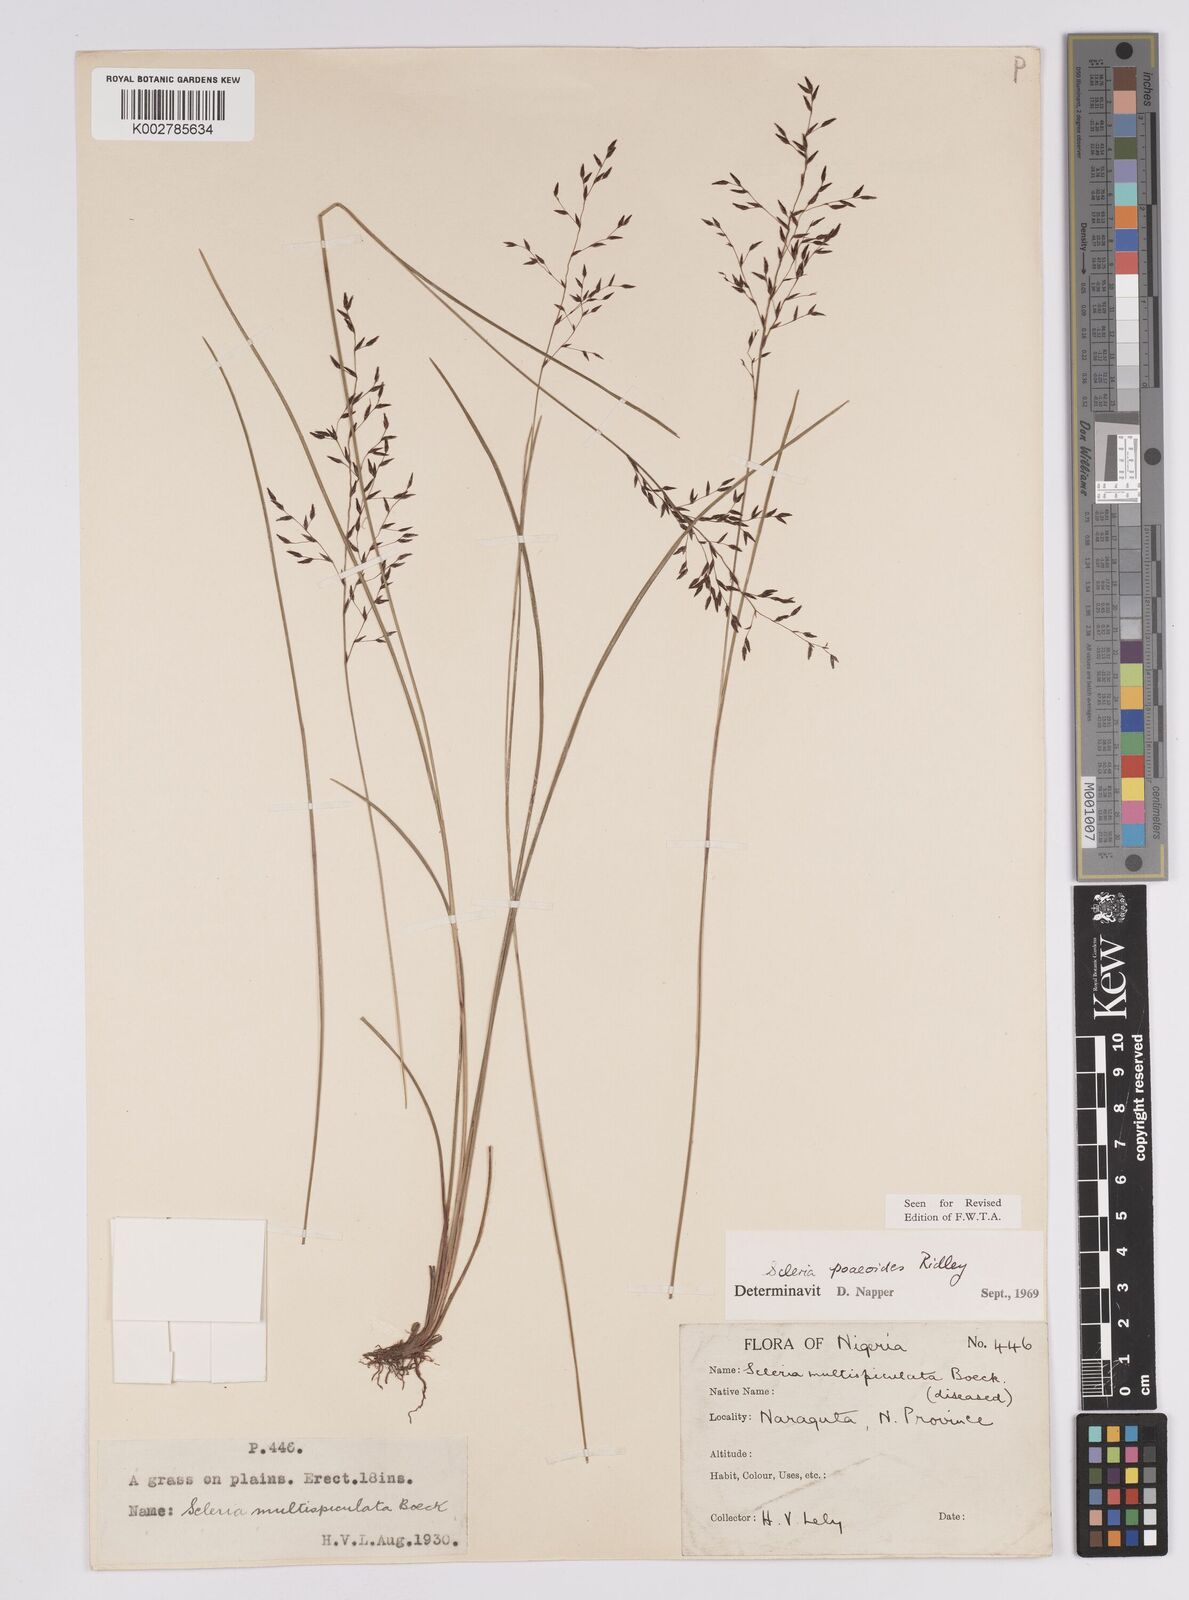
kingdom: Plantae
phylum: Tracheophyta
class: Liliopsida
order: Poales
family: Cyperaceae
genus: Scleria
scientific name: Scleria pooides
